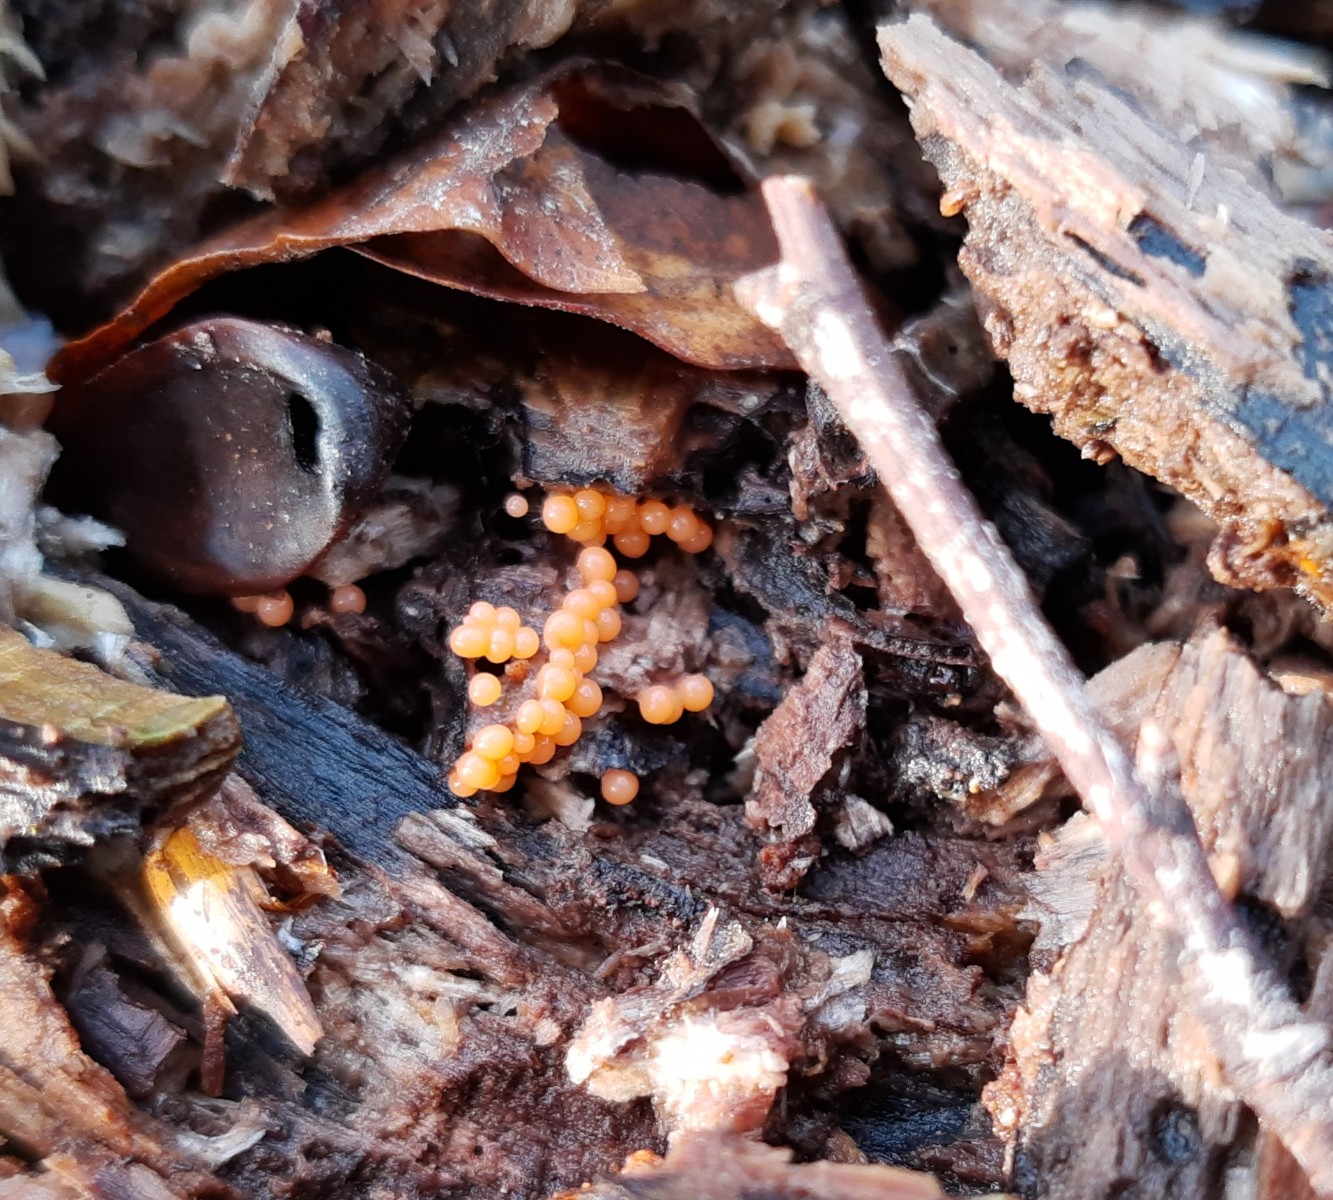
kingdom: Protozoa
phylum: Mycetozoa
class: Myxomycetes
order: Trichiales
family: Trichiaceae
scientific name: Trichiaceae
